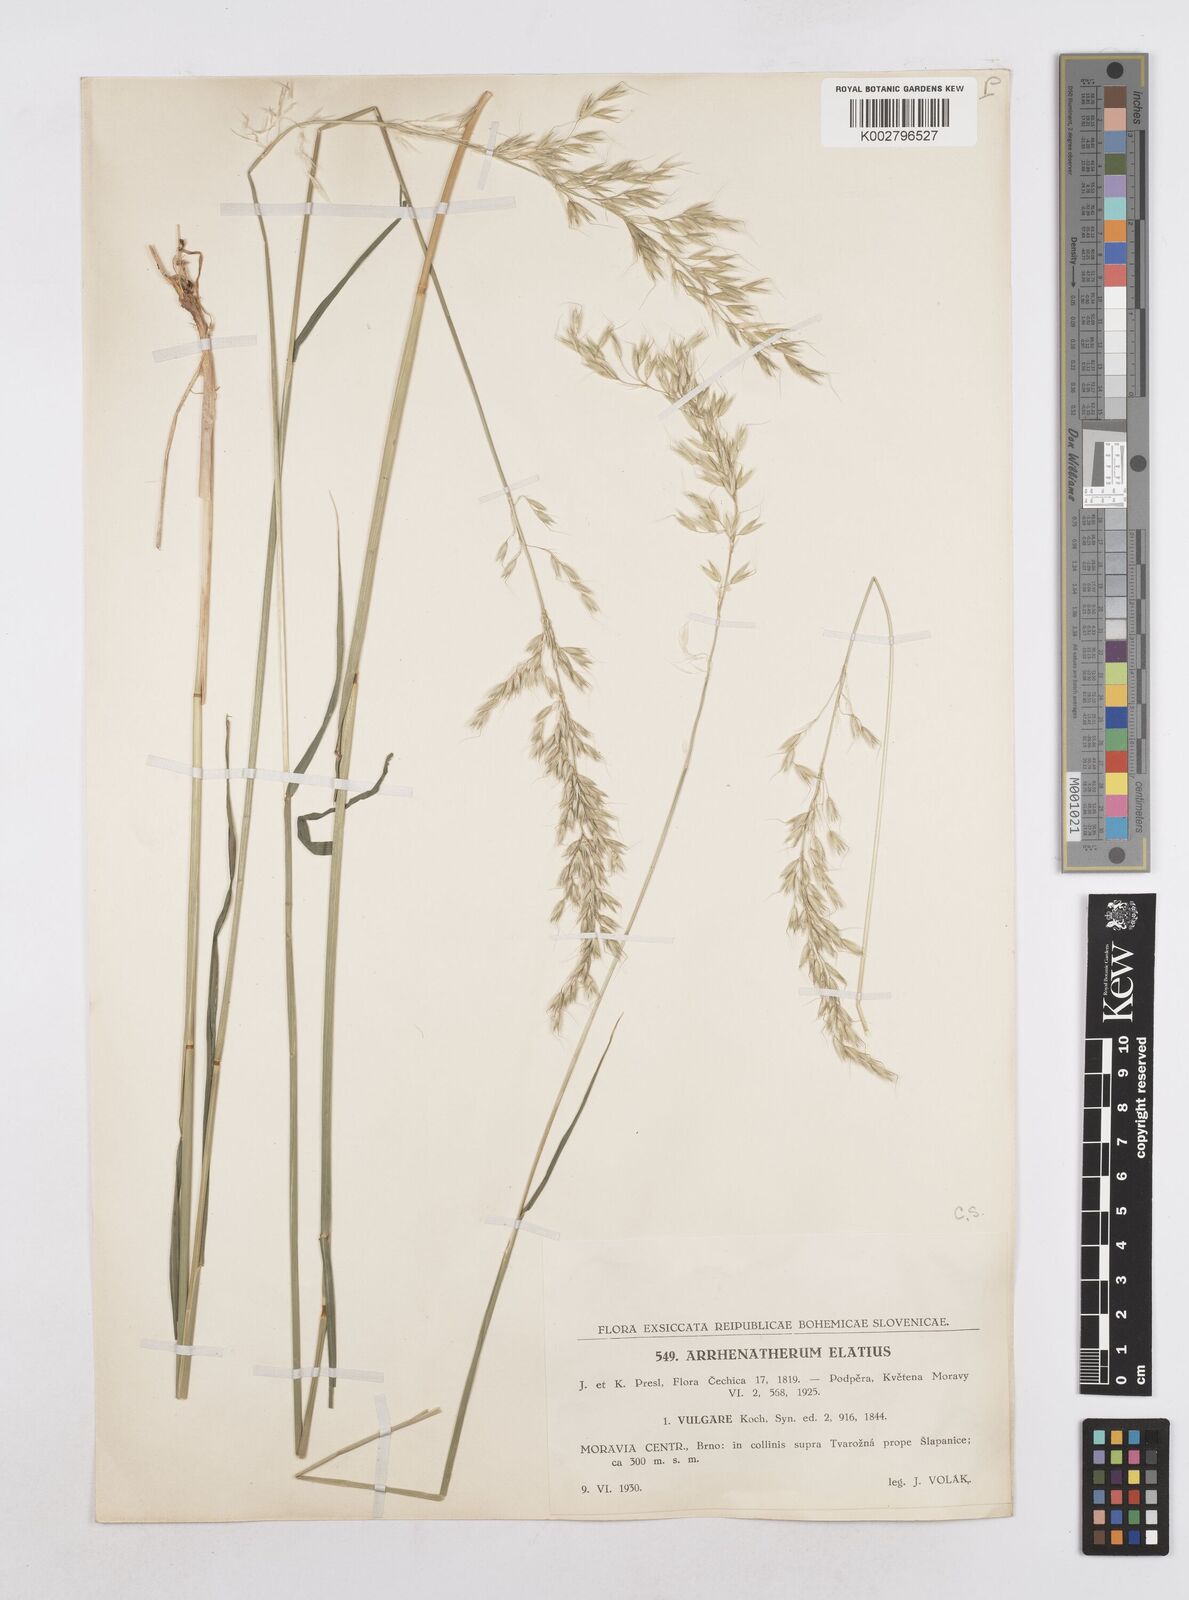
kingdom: Plantae
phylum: Tracheophyta
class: Liliopsida
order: Poales
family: Poaceae
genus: Arrhenatherum
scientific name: Arrhenatherum elatius
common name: Tall oatgrass
